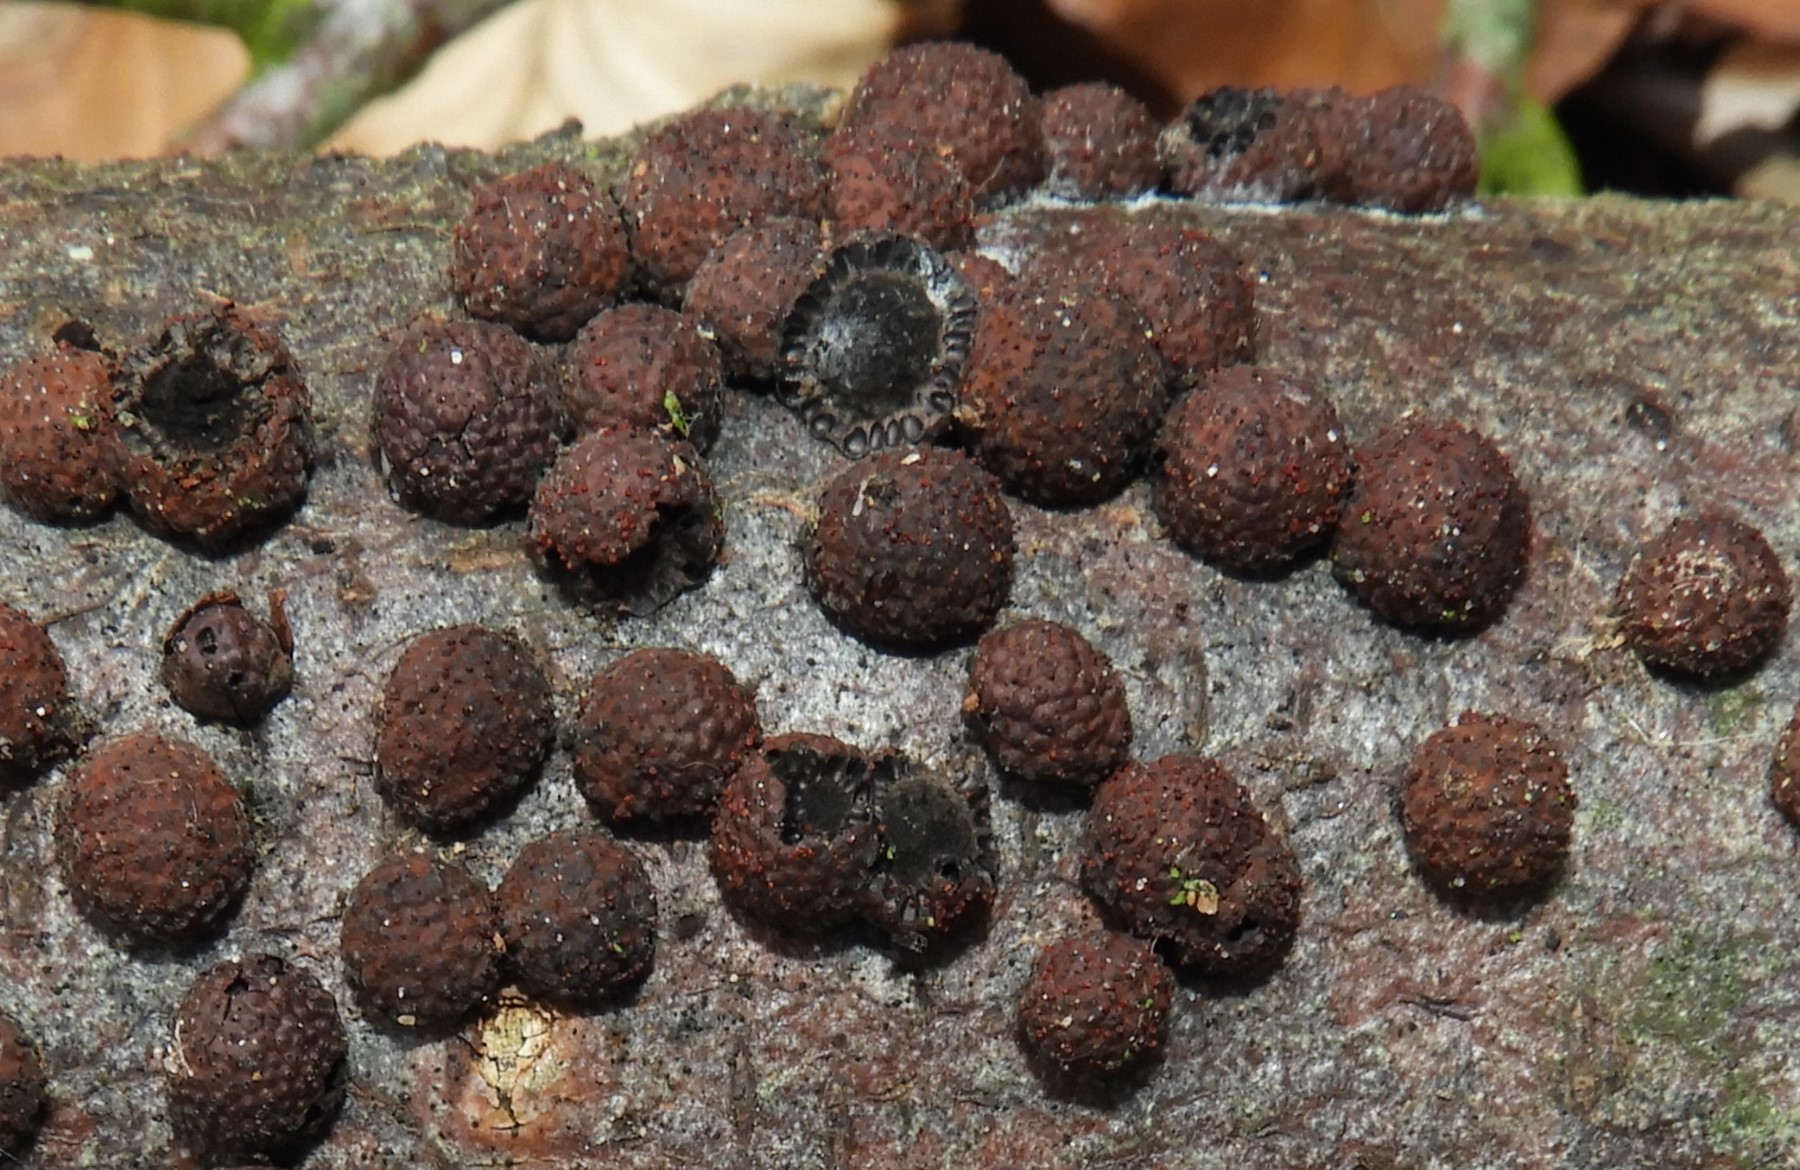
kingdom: Fungi
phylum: Ascomycota
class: Sordariomycetes
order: Xylariales
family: Hypoxylaceae
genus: Hypoxylon
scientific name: Hypoxylon fragiforme
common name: kuljordbær
